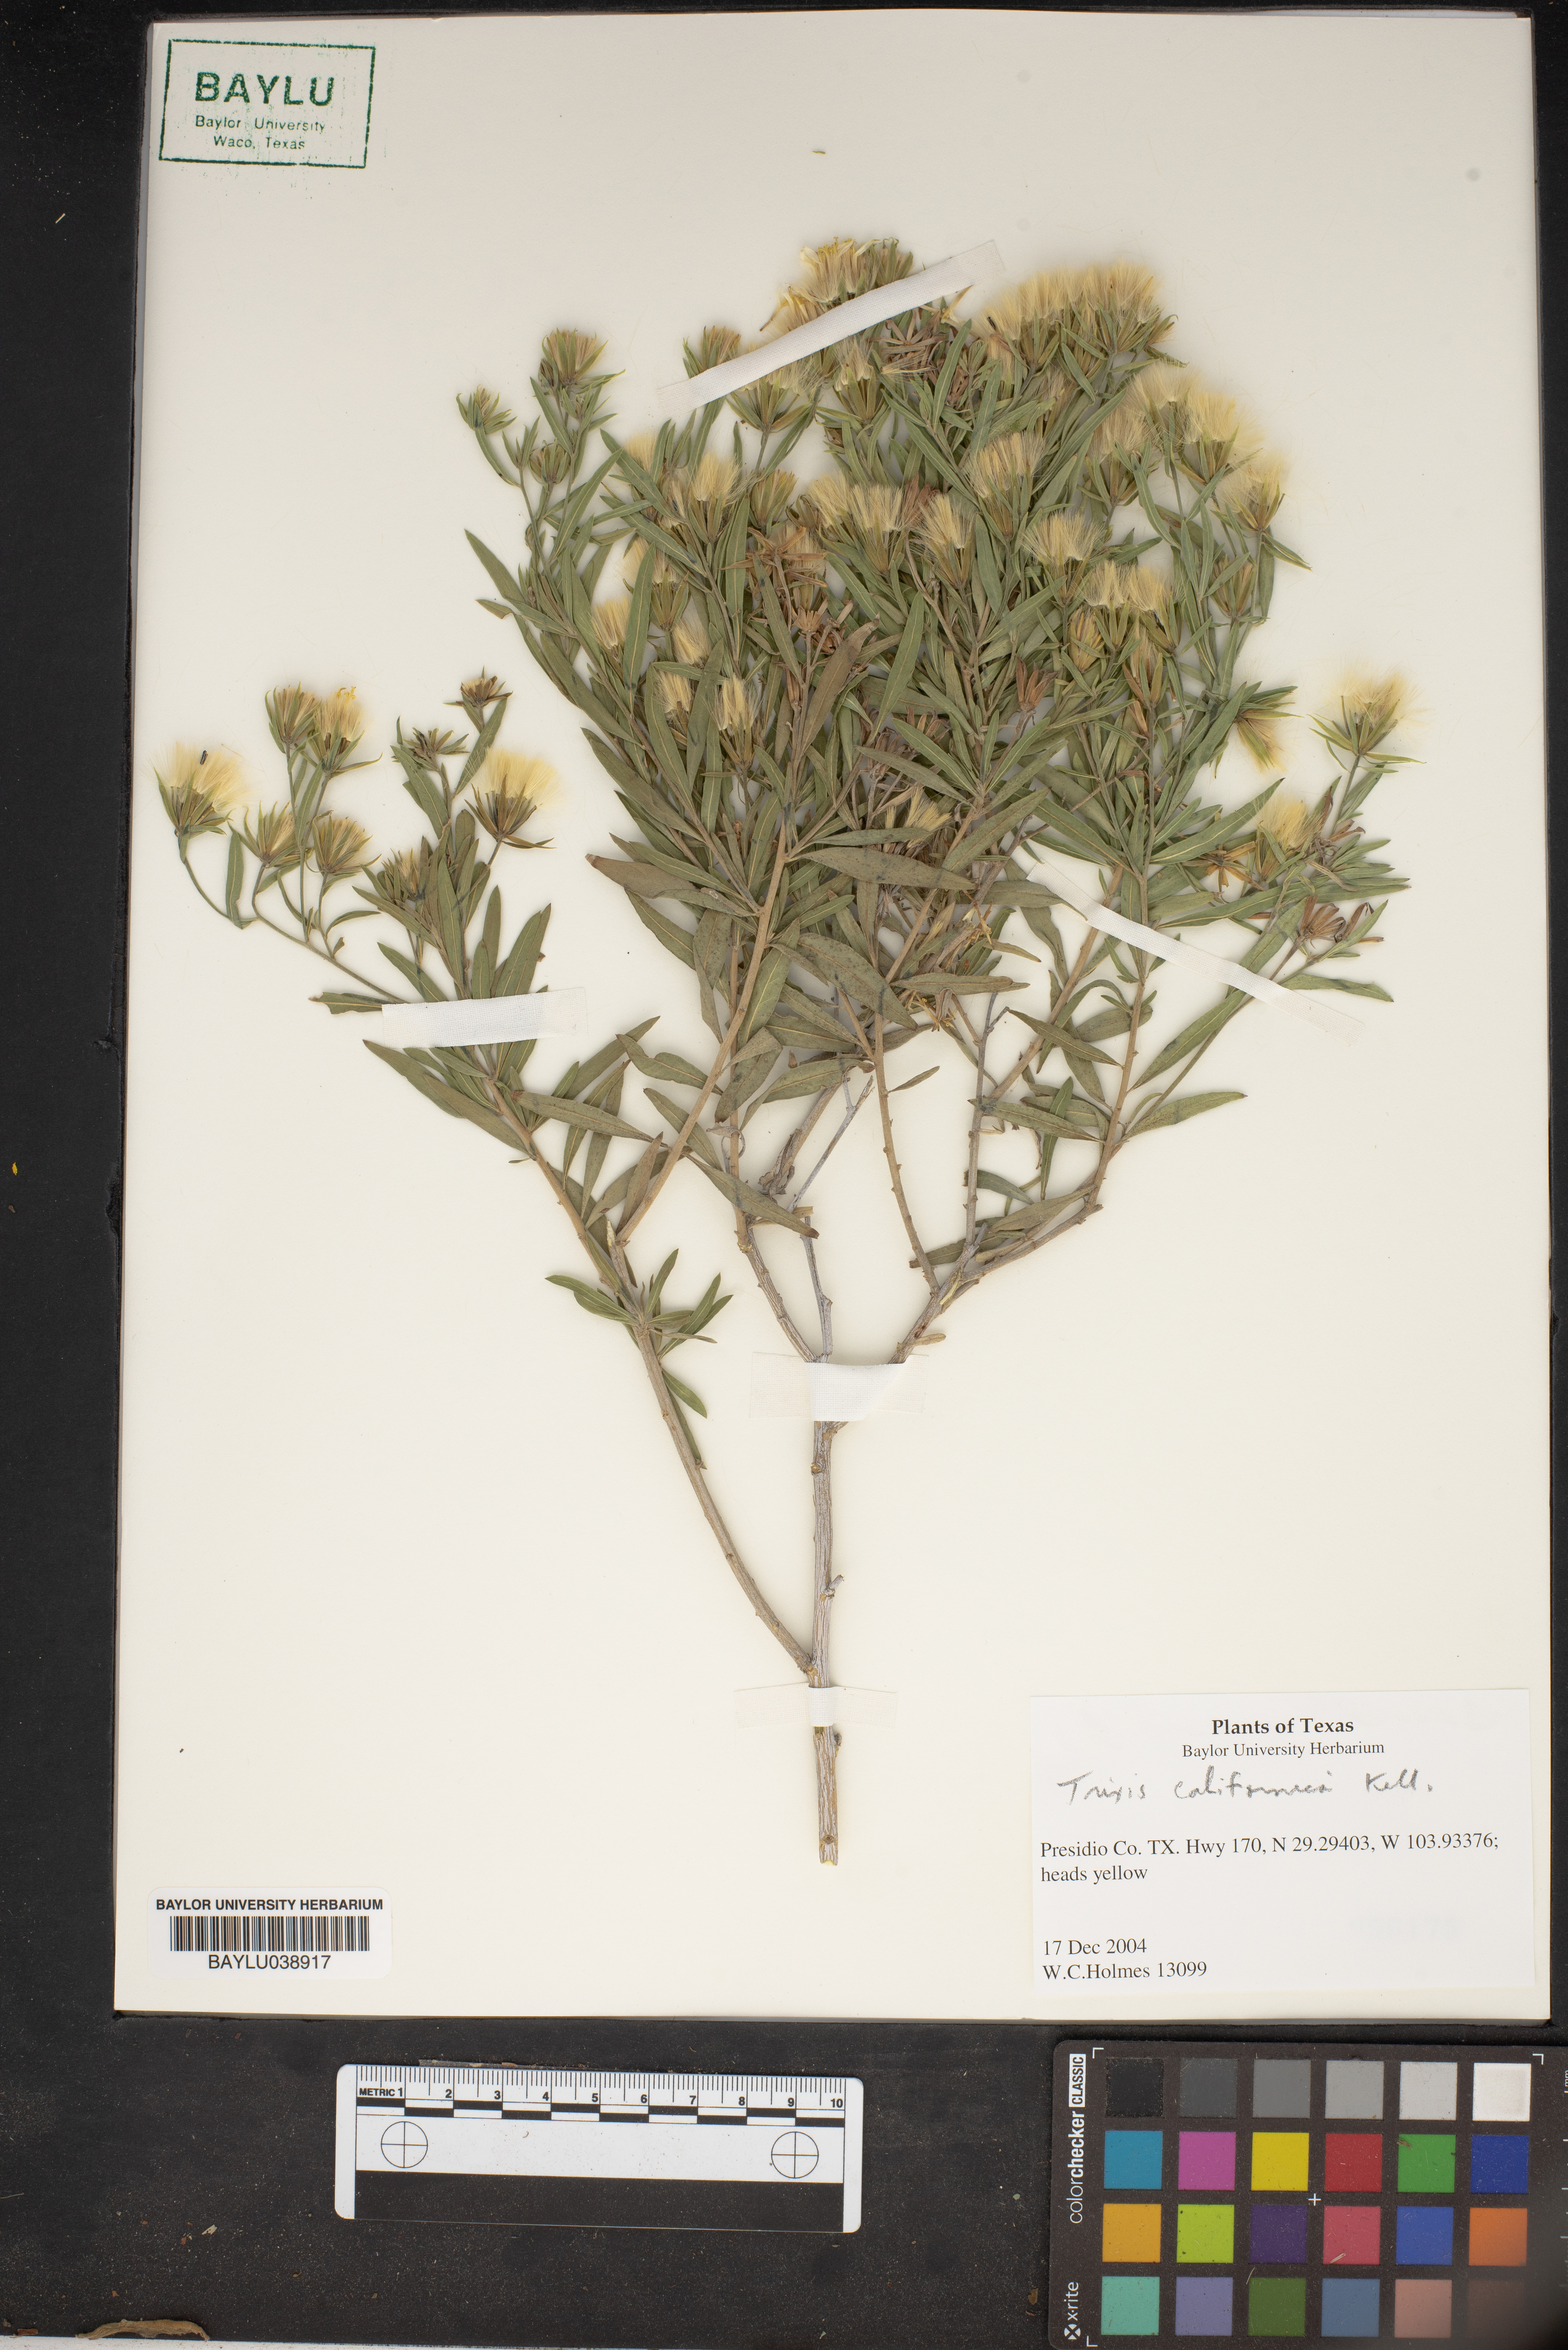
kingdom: Plantae
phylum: Tracheophyta
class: Magnoliopsida
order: Asterales
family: Asteraceae
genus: Trixis
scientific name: Trixis californica
